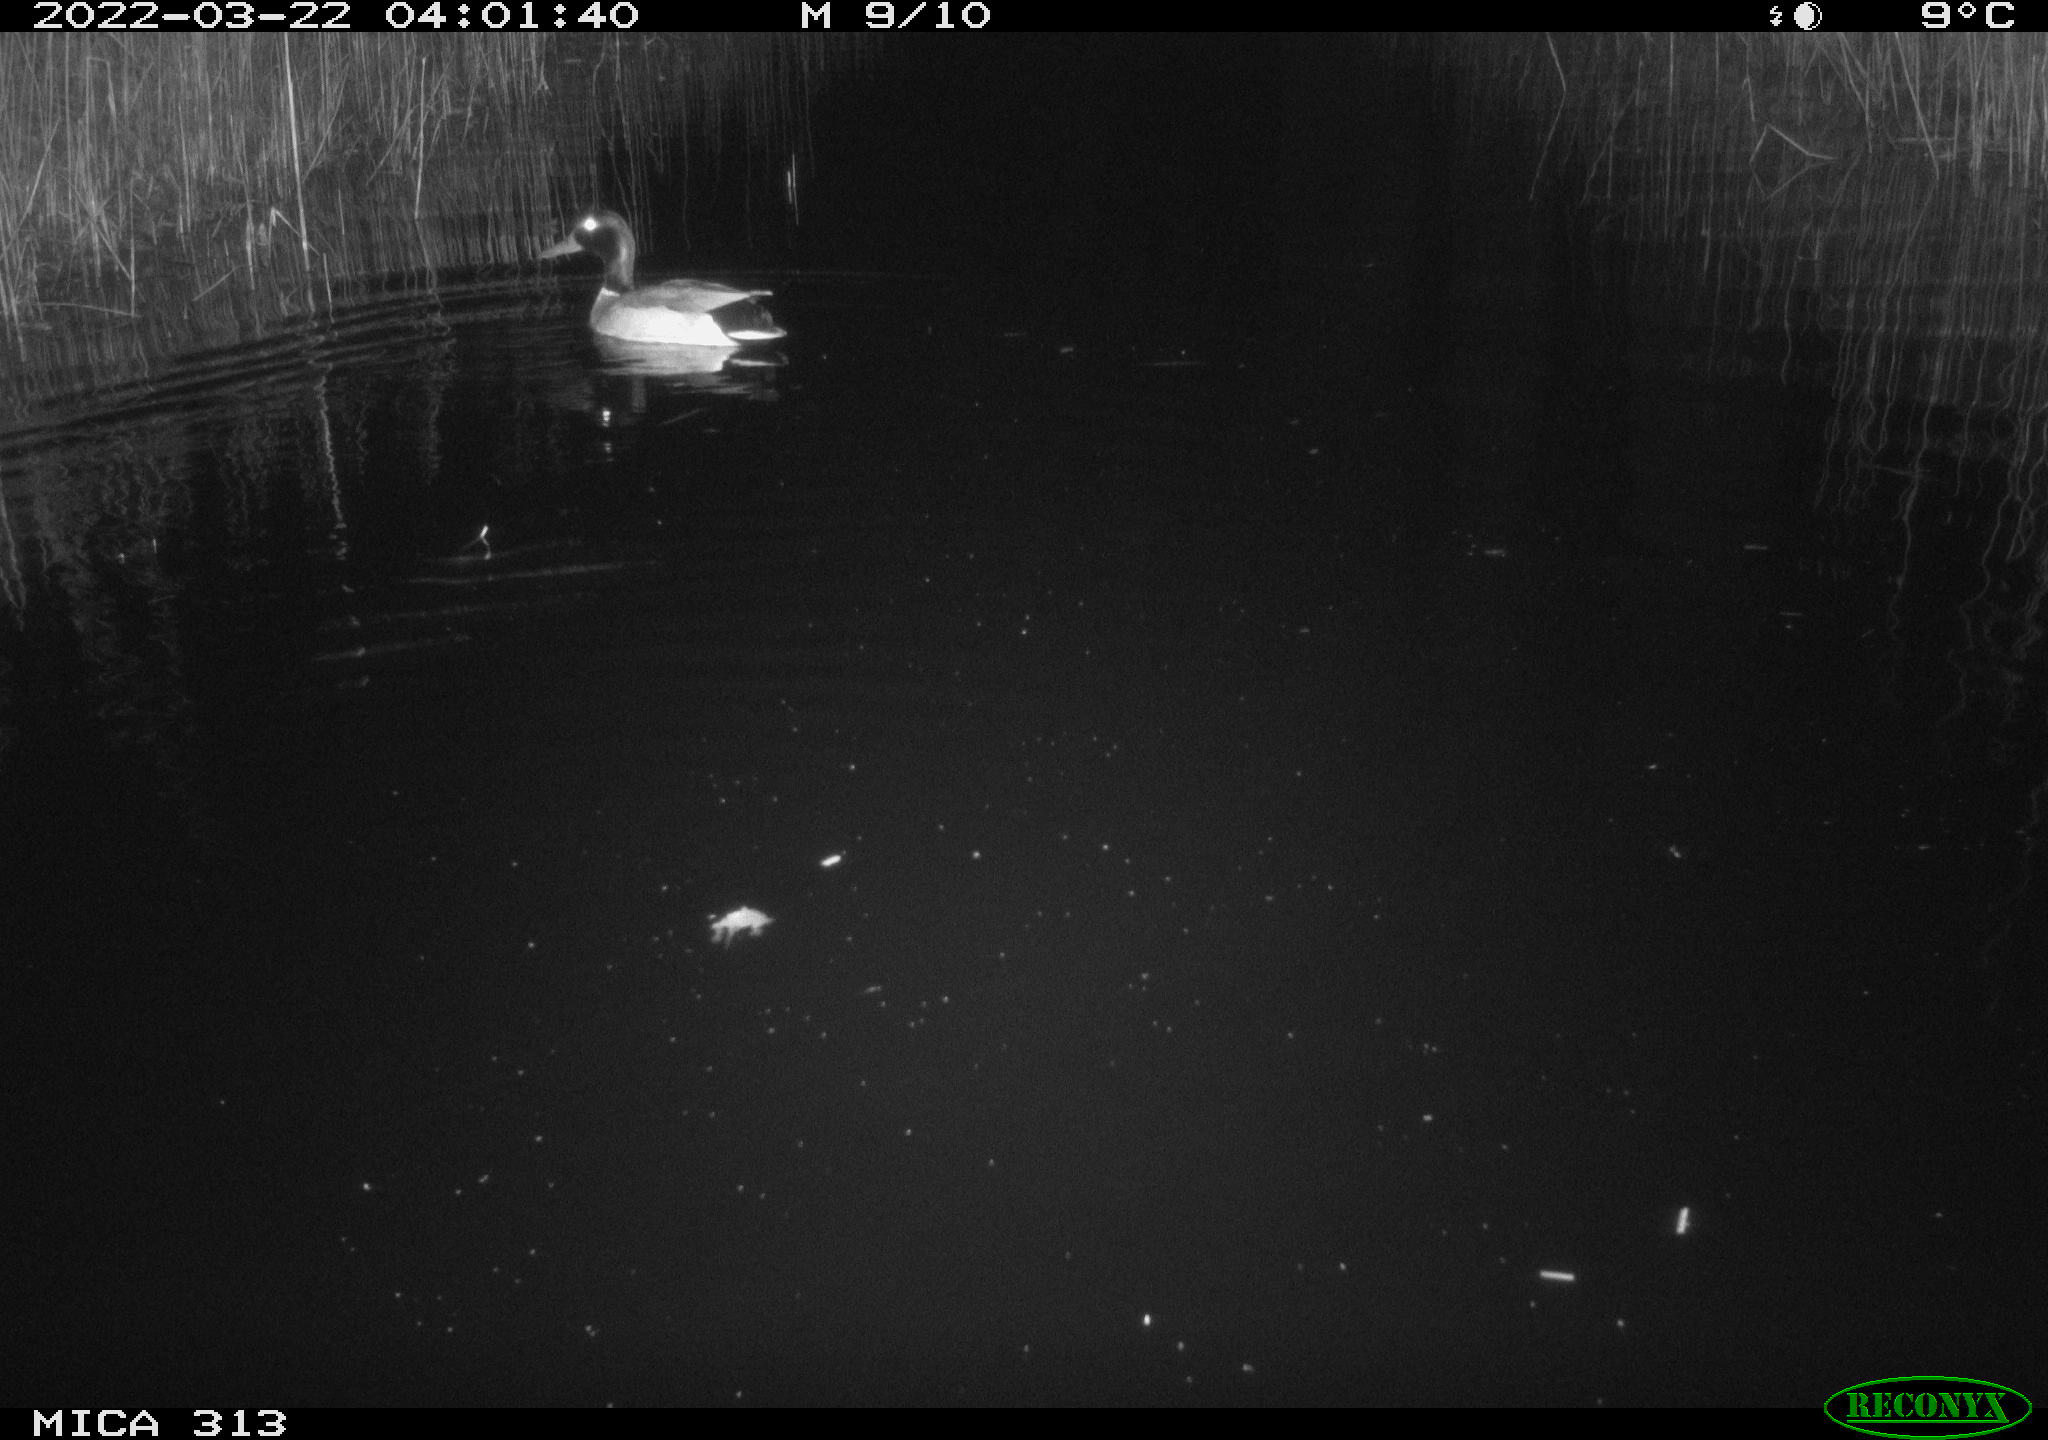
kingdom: Animalia
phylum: Chordata
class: Aves
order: Anseriformes
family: Anatidae
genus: Anas
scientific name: Anas platyrhynchos
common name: Mallard
